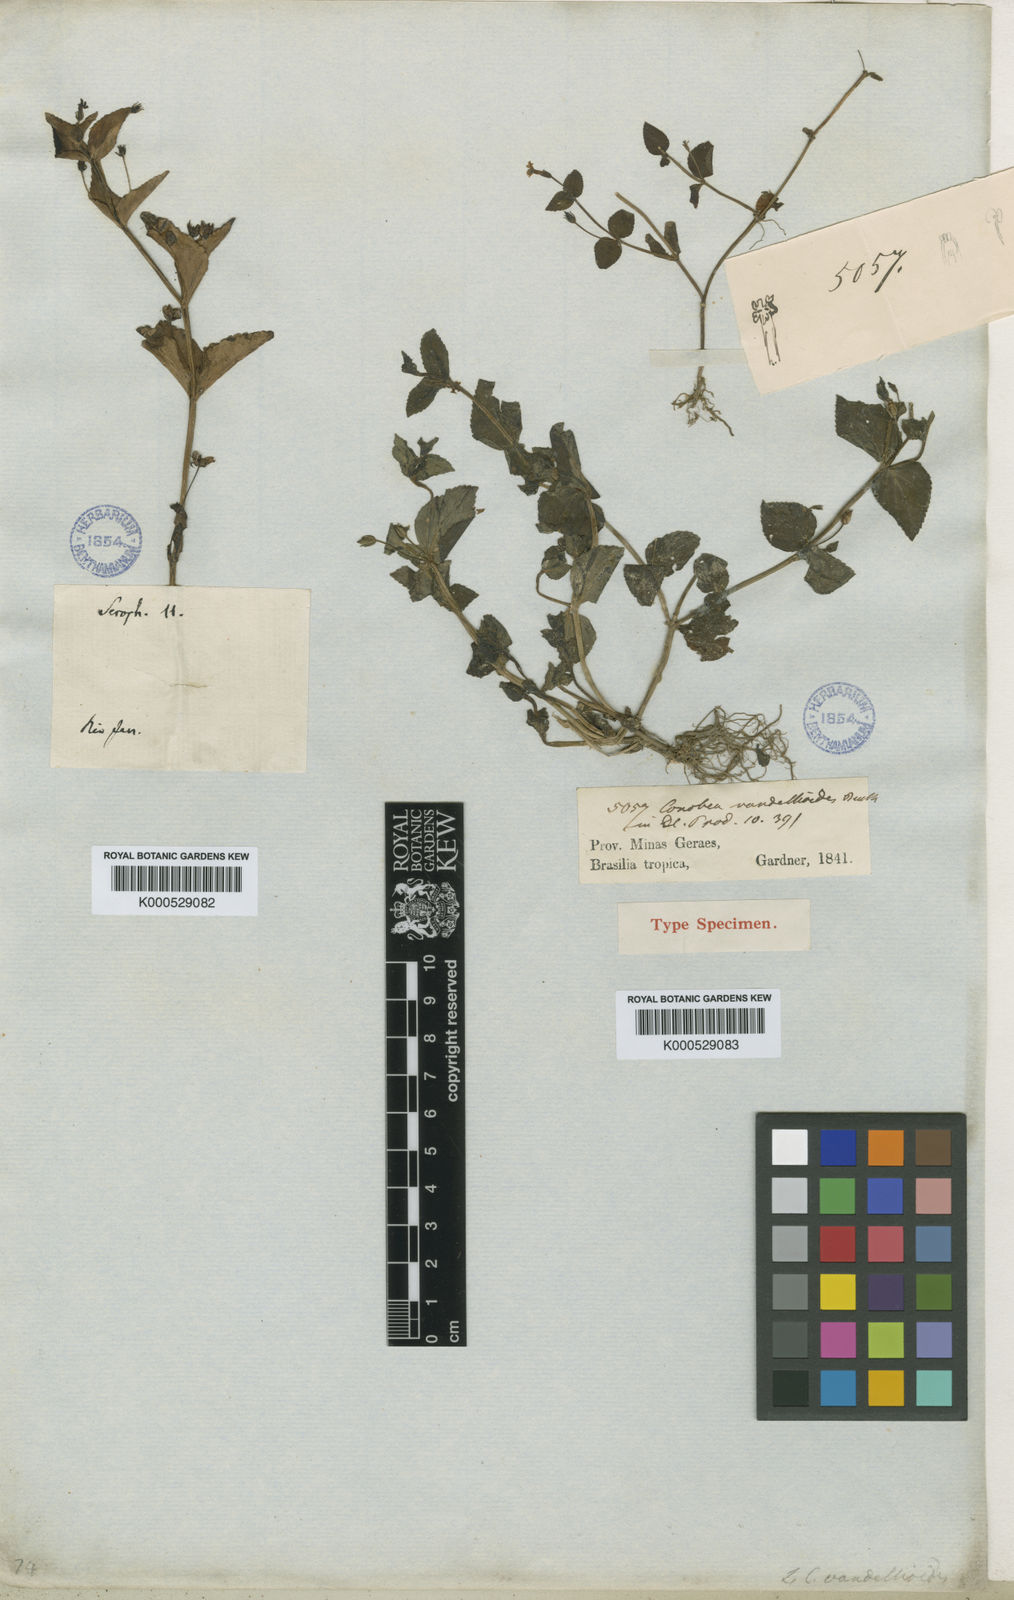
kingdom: Plantae
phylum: Tracheophyta
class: Magnoliopsida
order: Lamiales
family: Plantaginaceae
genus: Darcya
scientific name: Darcya vandellioides
